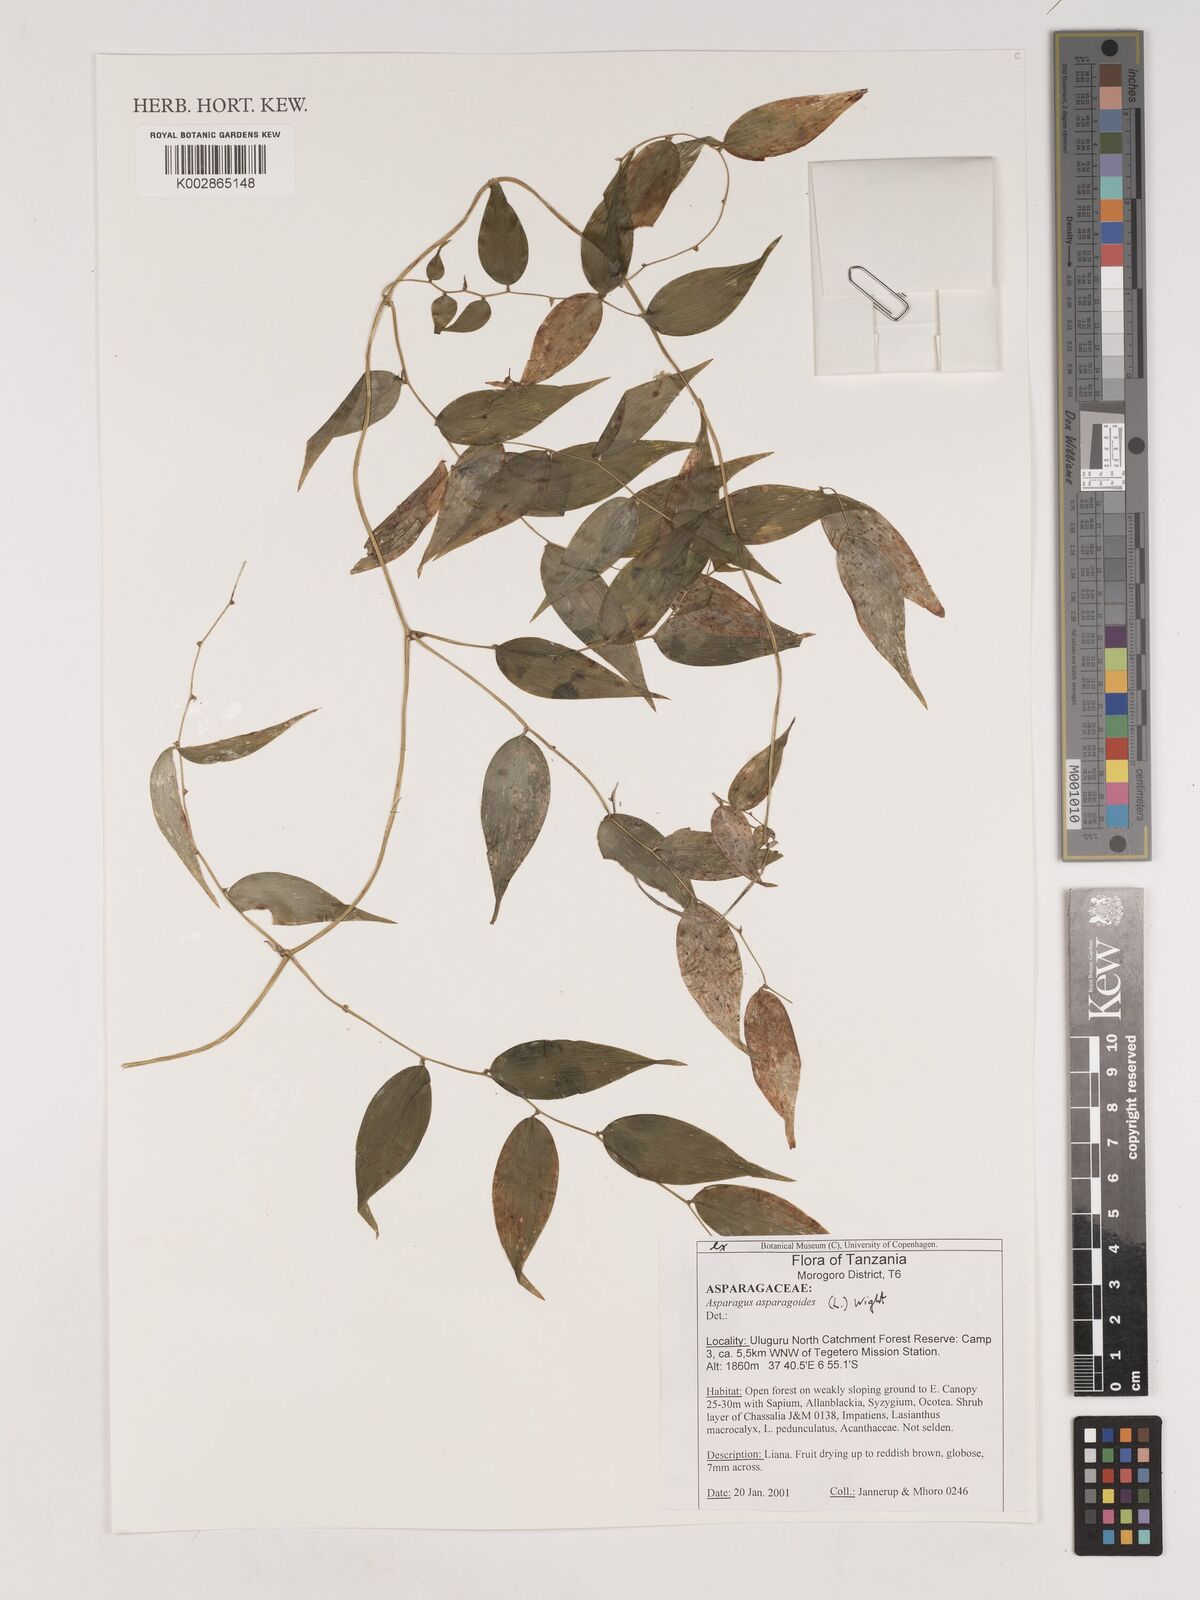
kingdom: Plantae
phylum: Tracheophyta
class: Liliopsida
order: Asparagales
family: Asparagaceae
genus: Asparagus
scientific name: Asparagus asparagoides
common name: African asparagus fern
